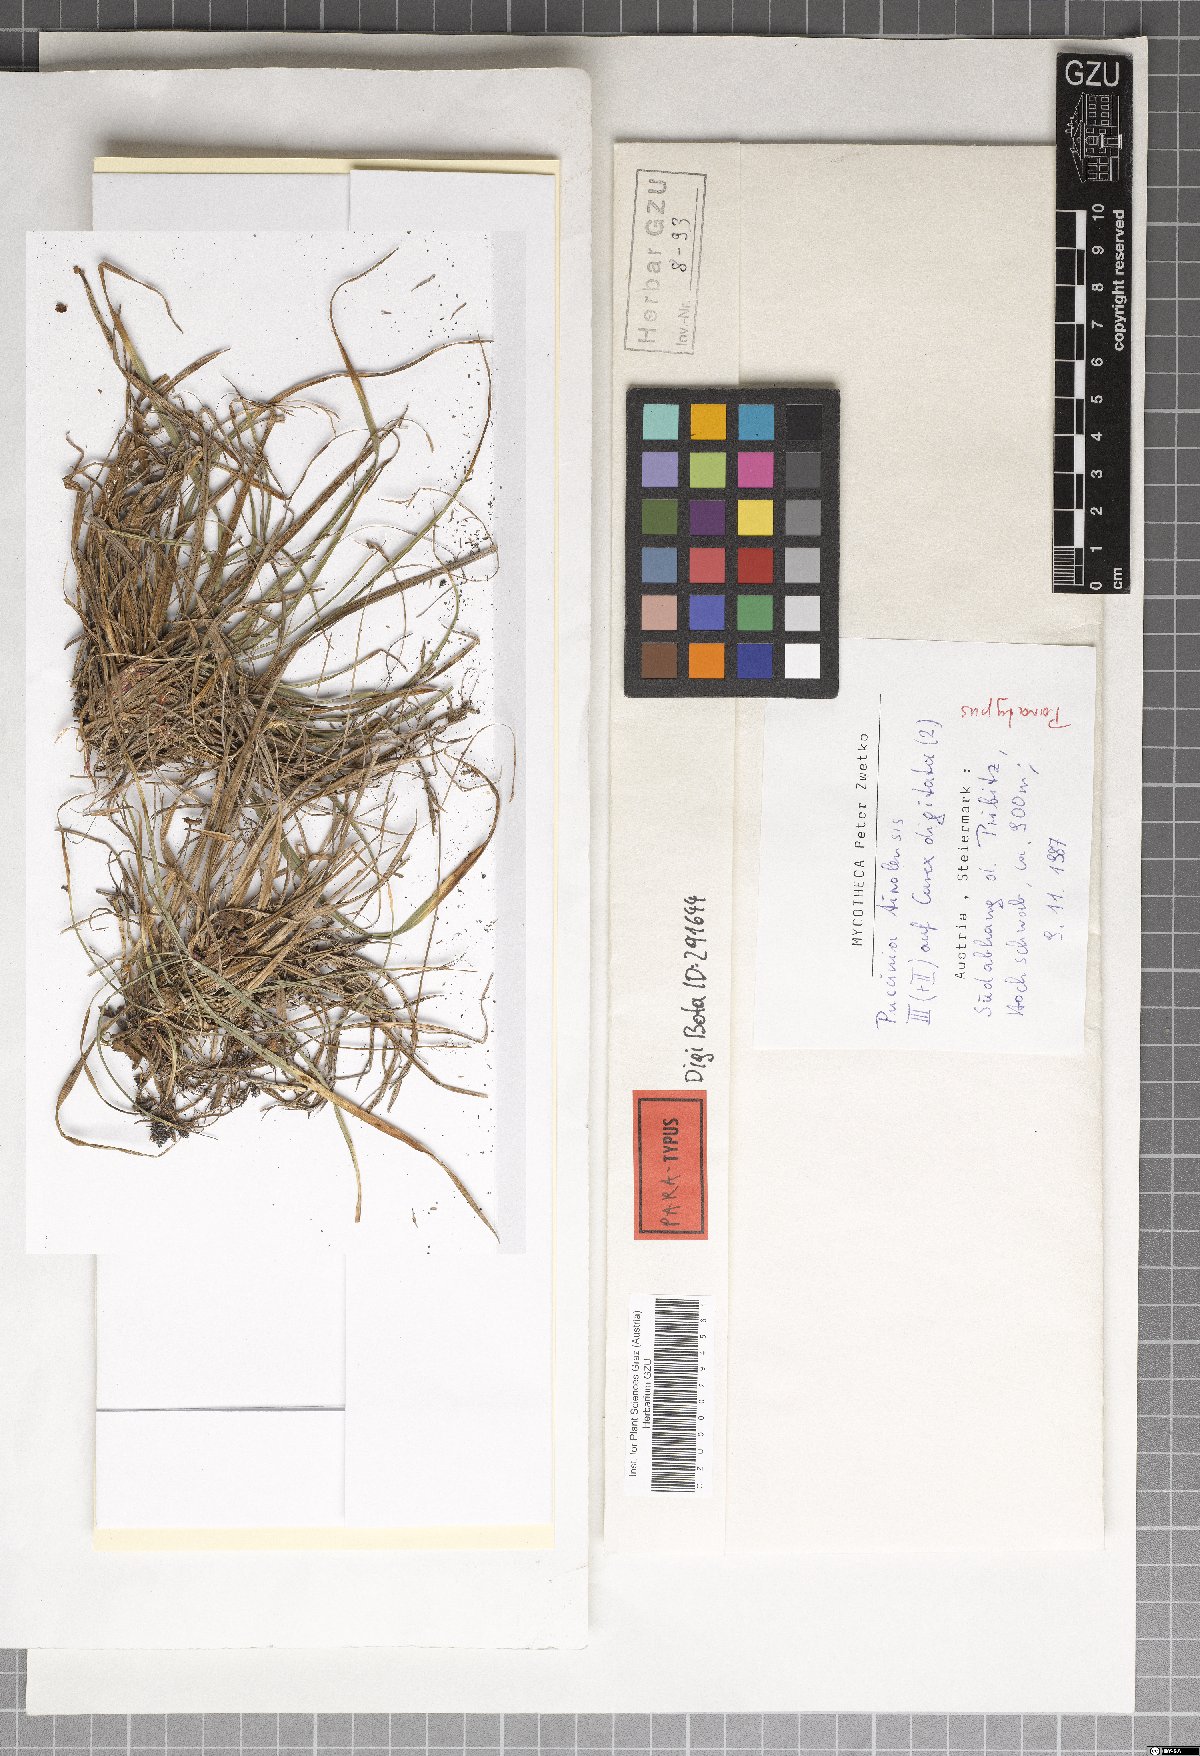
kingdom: Fungi
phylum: Basidiomycota
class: Pucciniomycetes
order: Pucciniales
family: Pucciniaceae
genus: Puccinia
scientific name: Puccinia tirolensis
